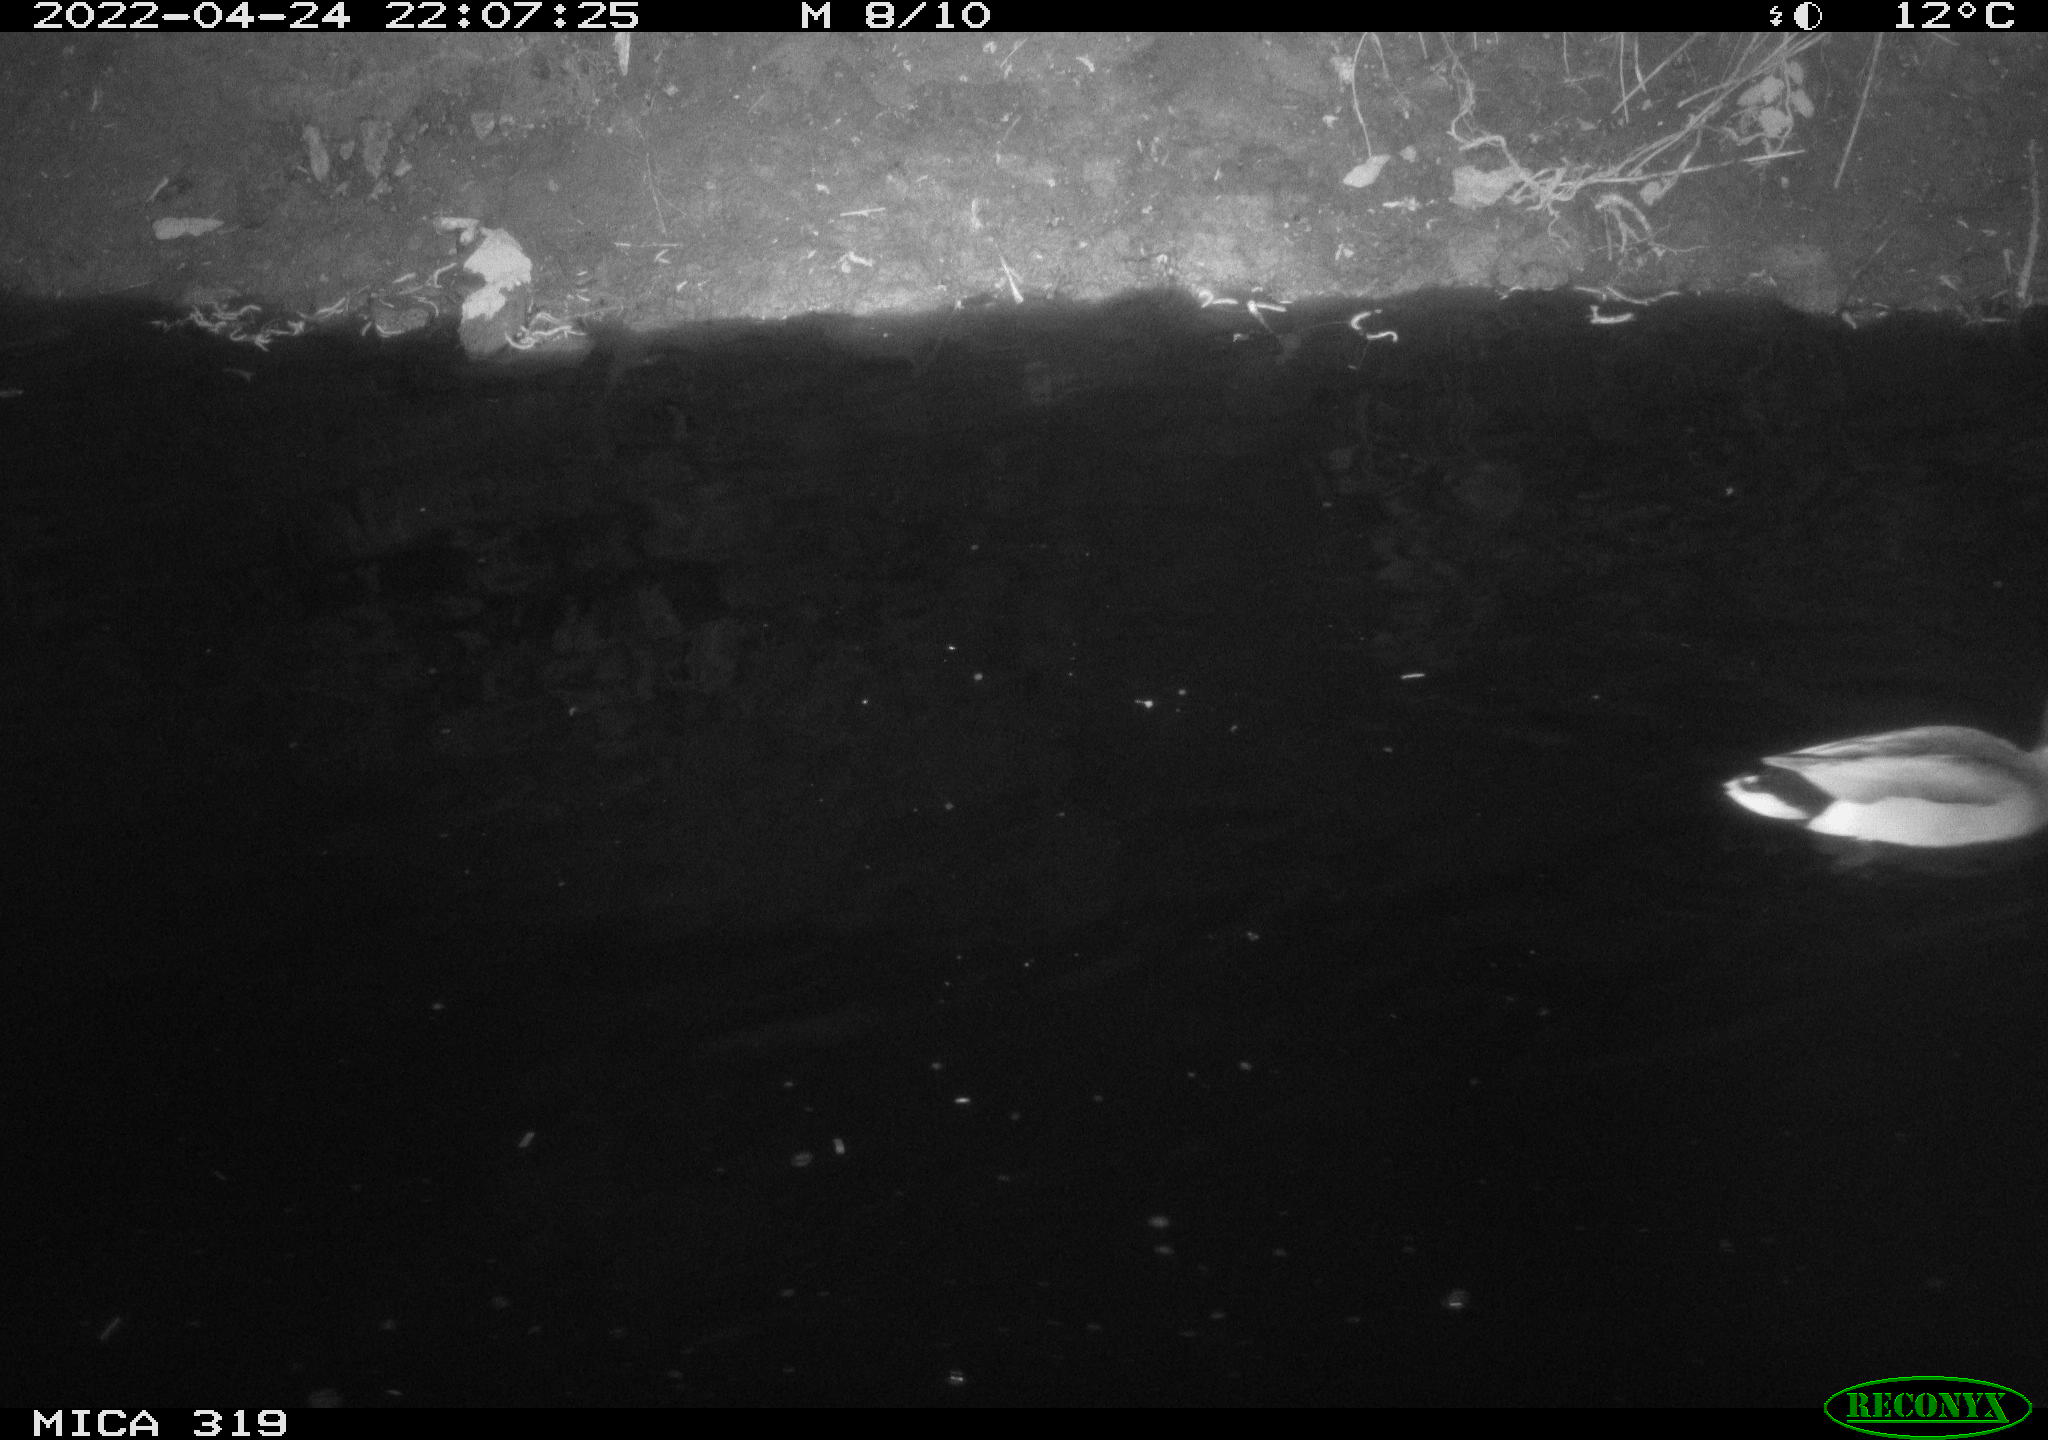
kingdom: Animalia
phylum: Chordata
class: Aves
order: Anseriformes
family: Anatidae
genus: Anas
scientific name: Anas platyrhynchos
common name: Mallard
